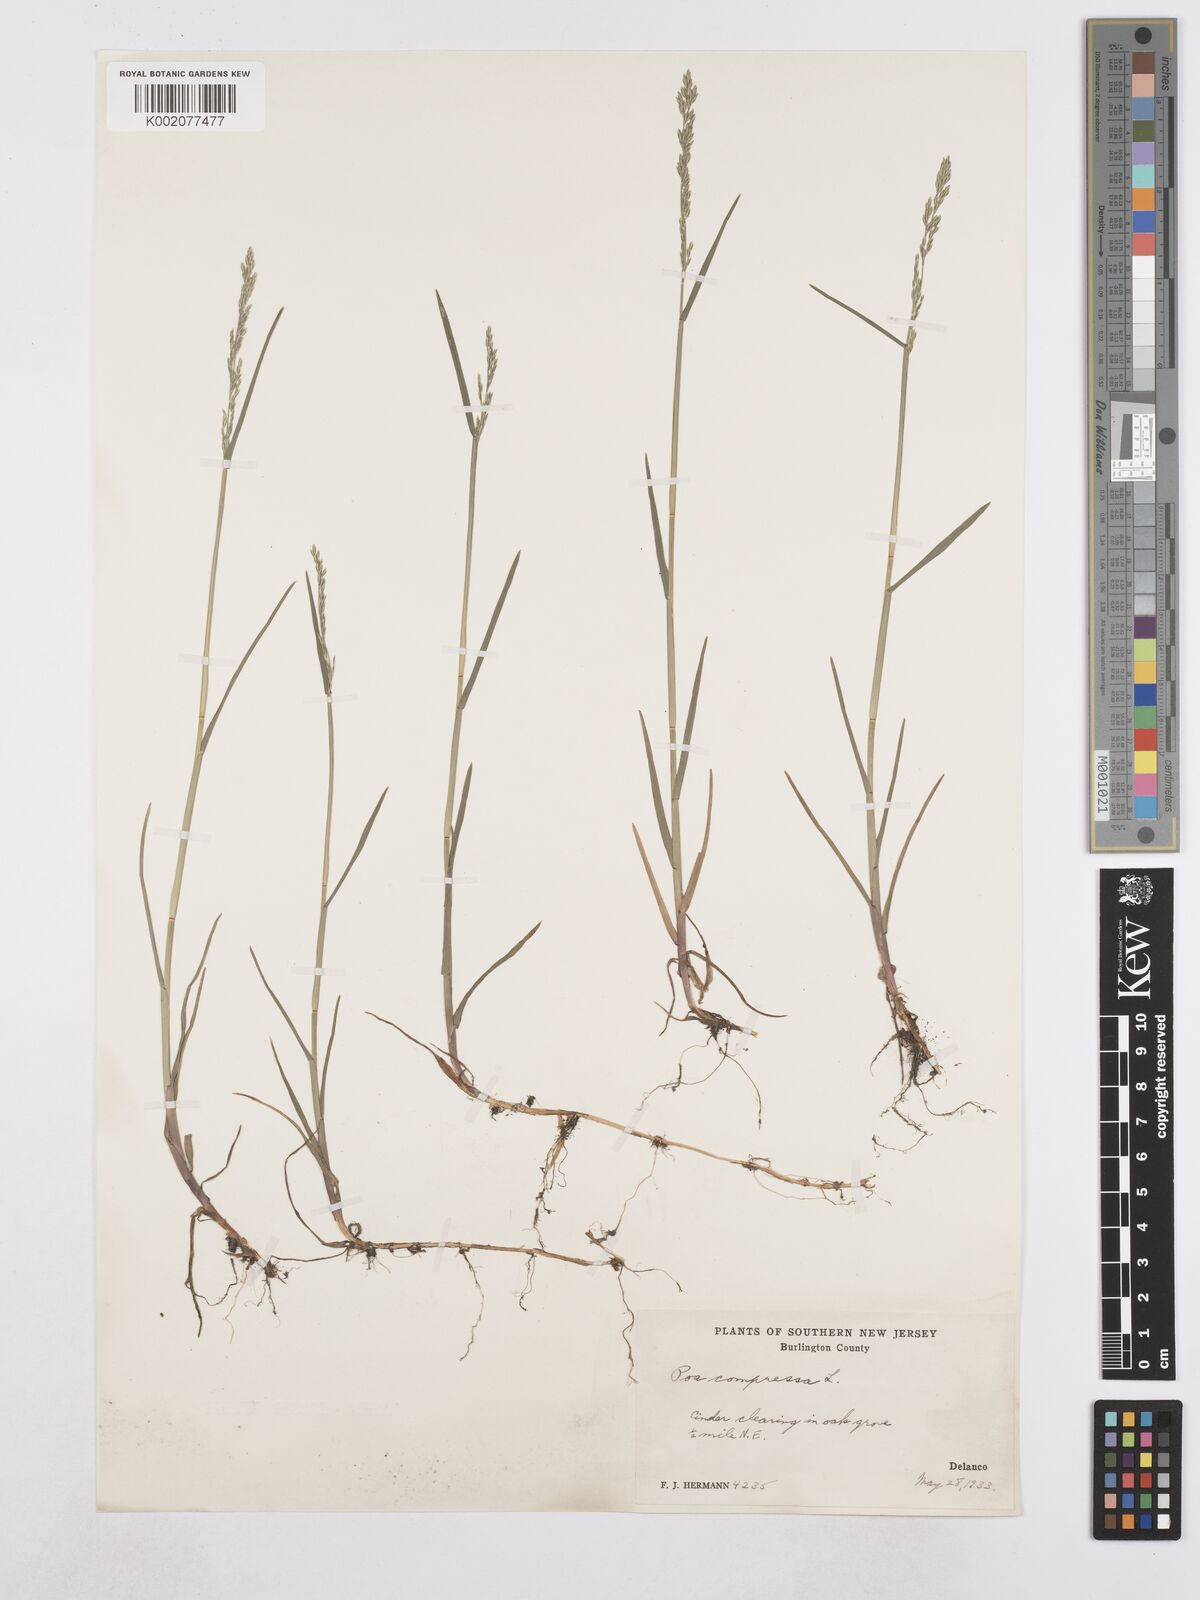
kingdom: Plantae
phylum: Tracheophyta
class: Liliopsida
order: Poales
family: Poaceae
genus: Poa
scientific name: Poa compressa
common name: Canada bluegrass
